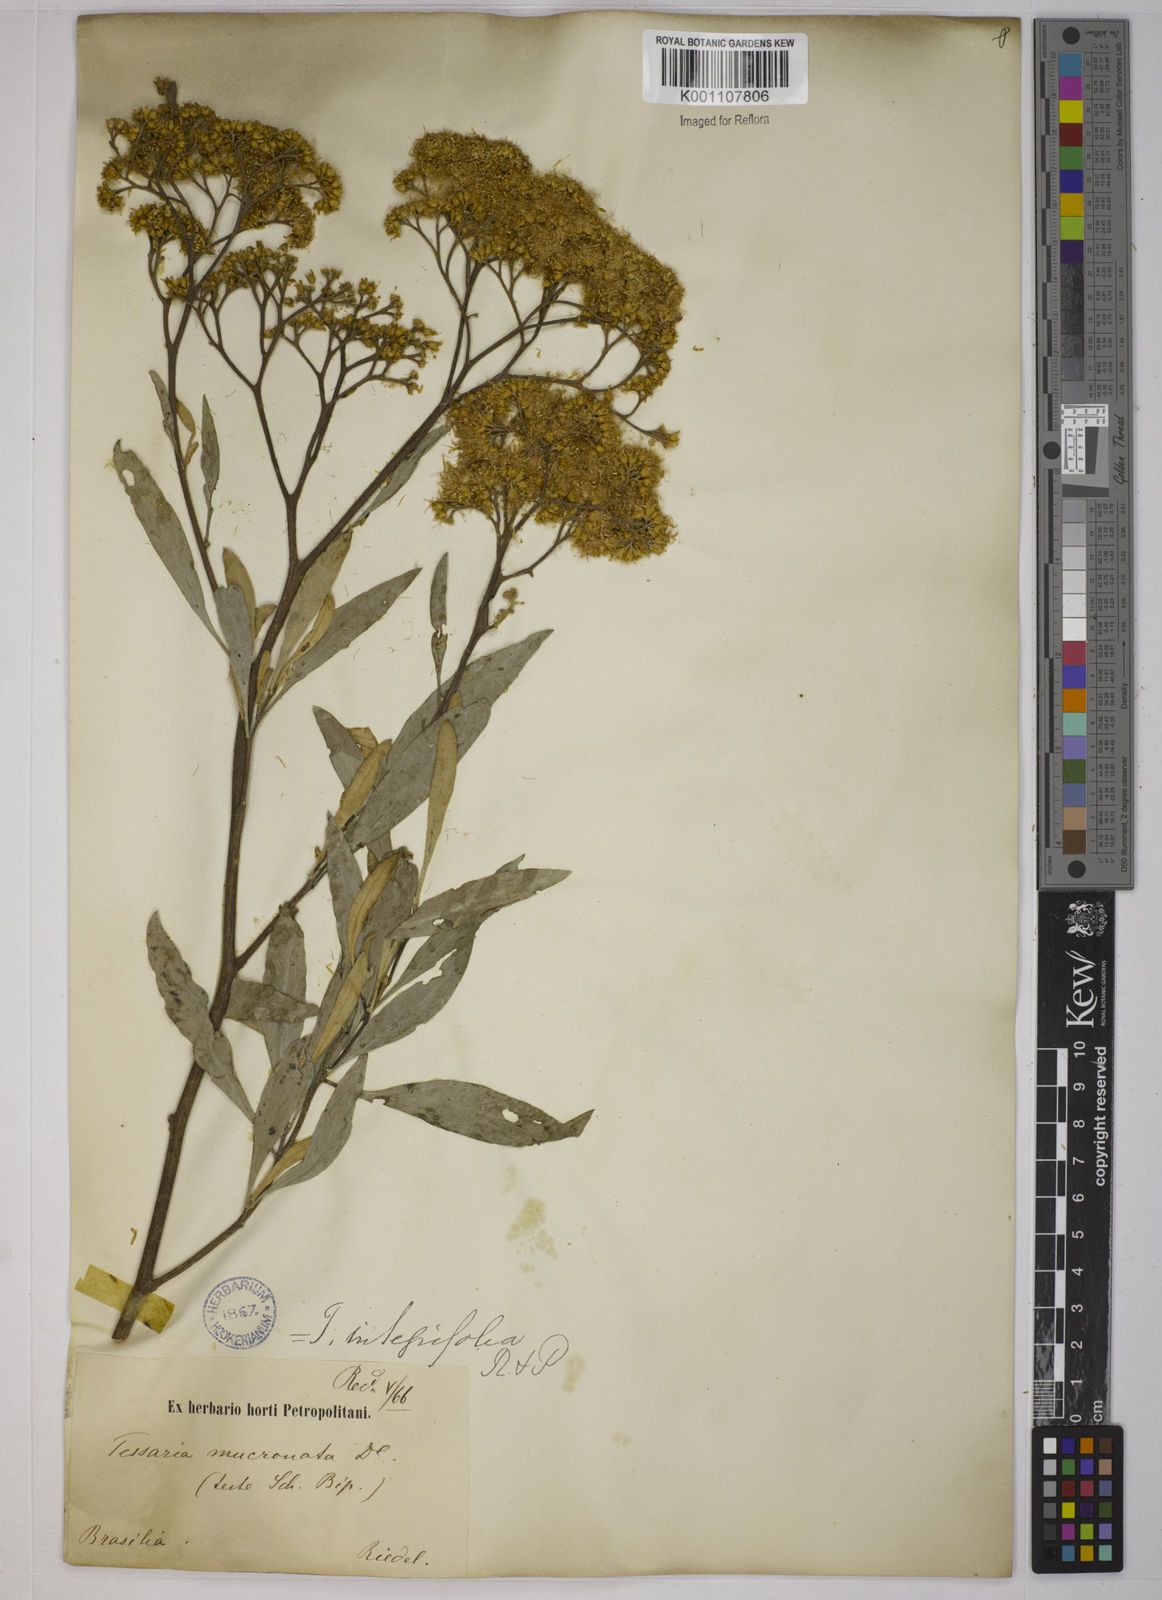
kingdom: Plantae
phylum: Tracheophyta
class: Magnoliopsida
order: Asterales
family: Asteraceae
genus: Tessaria
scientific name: Tessaria integrifolia
